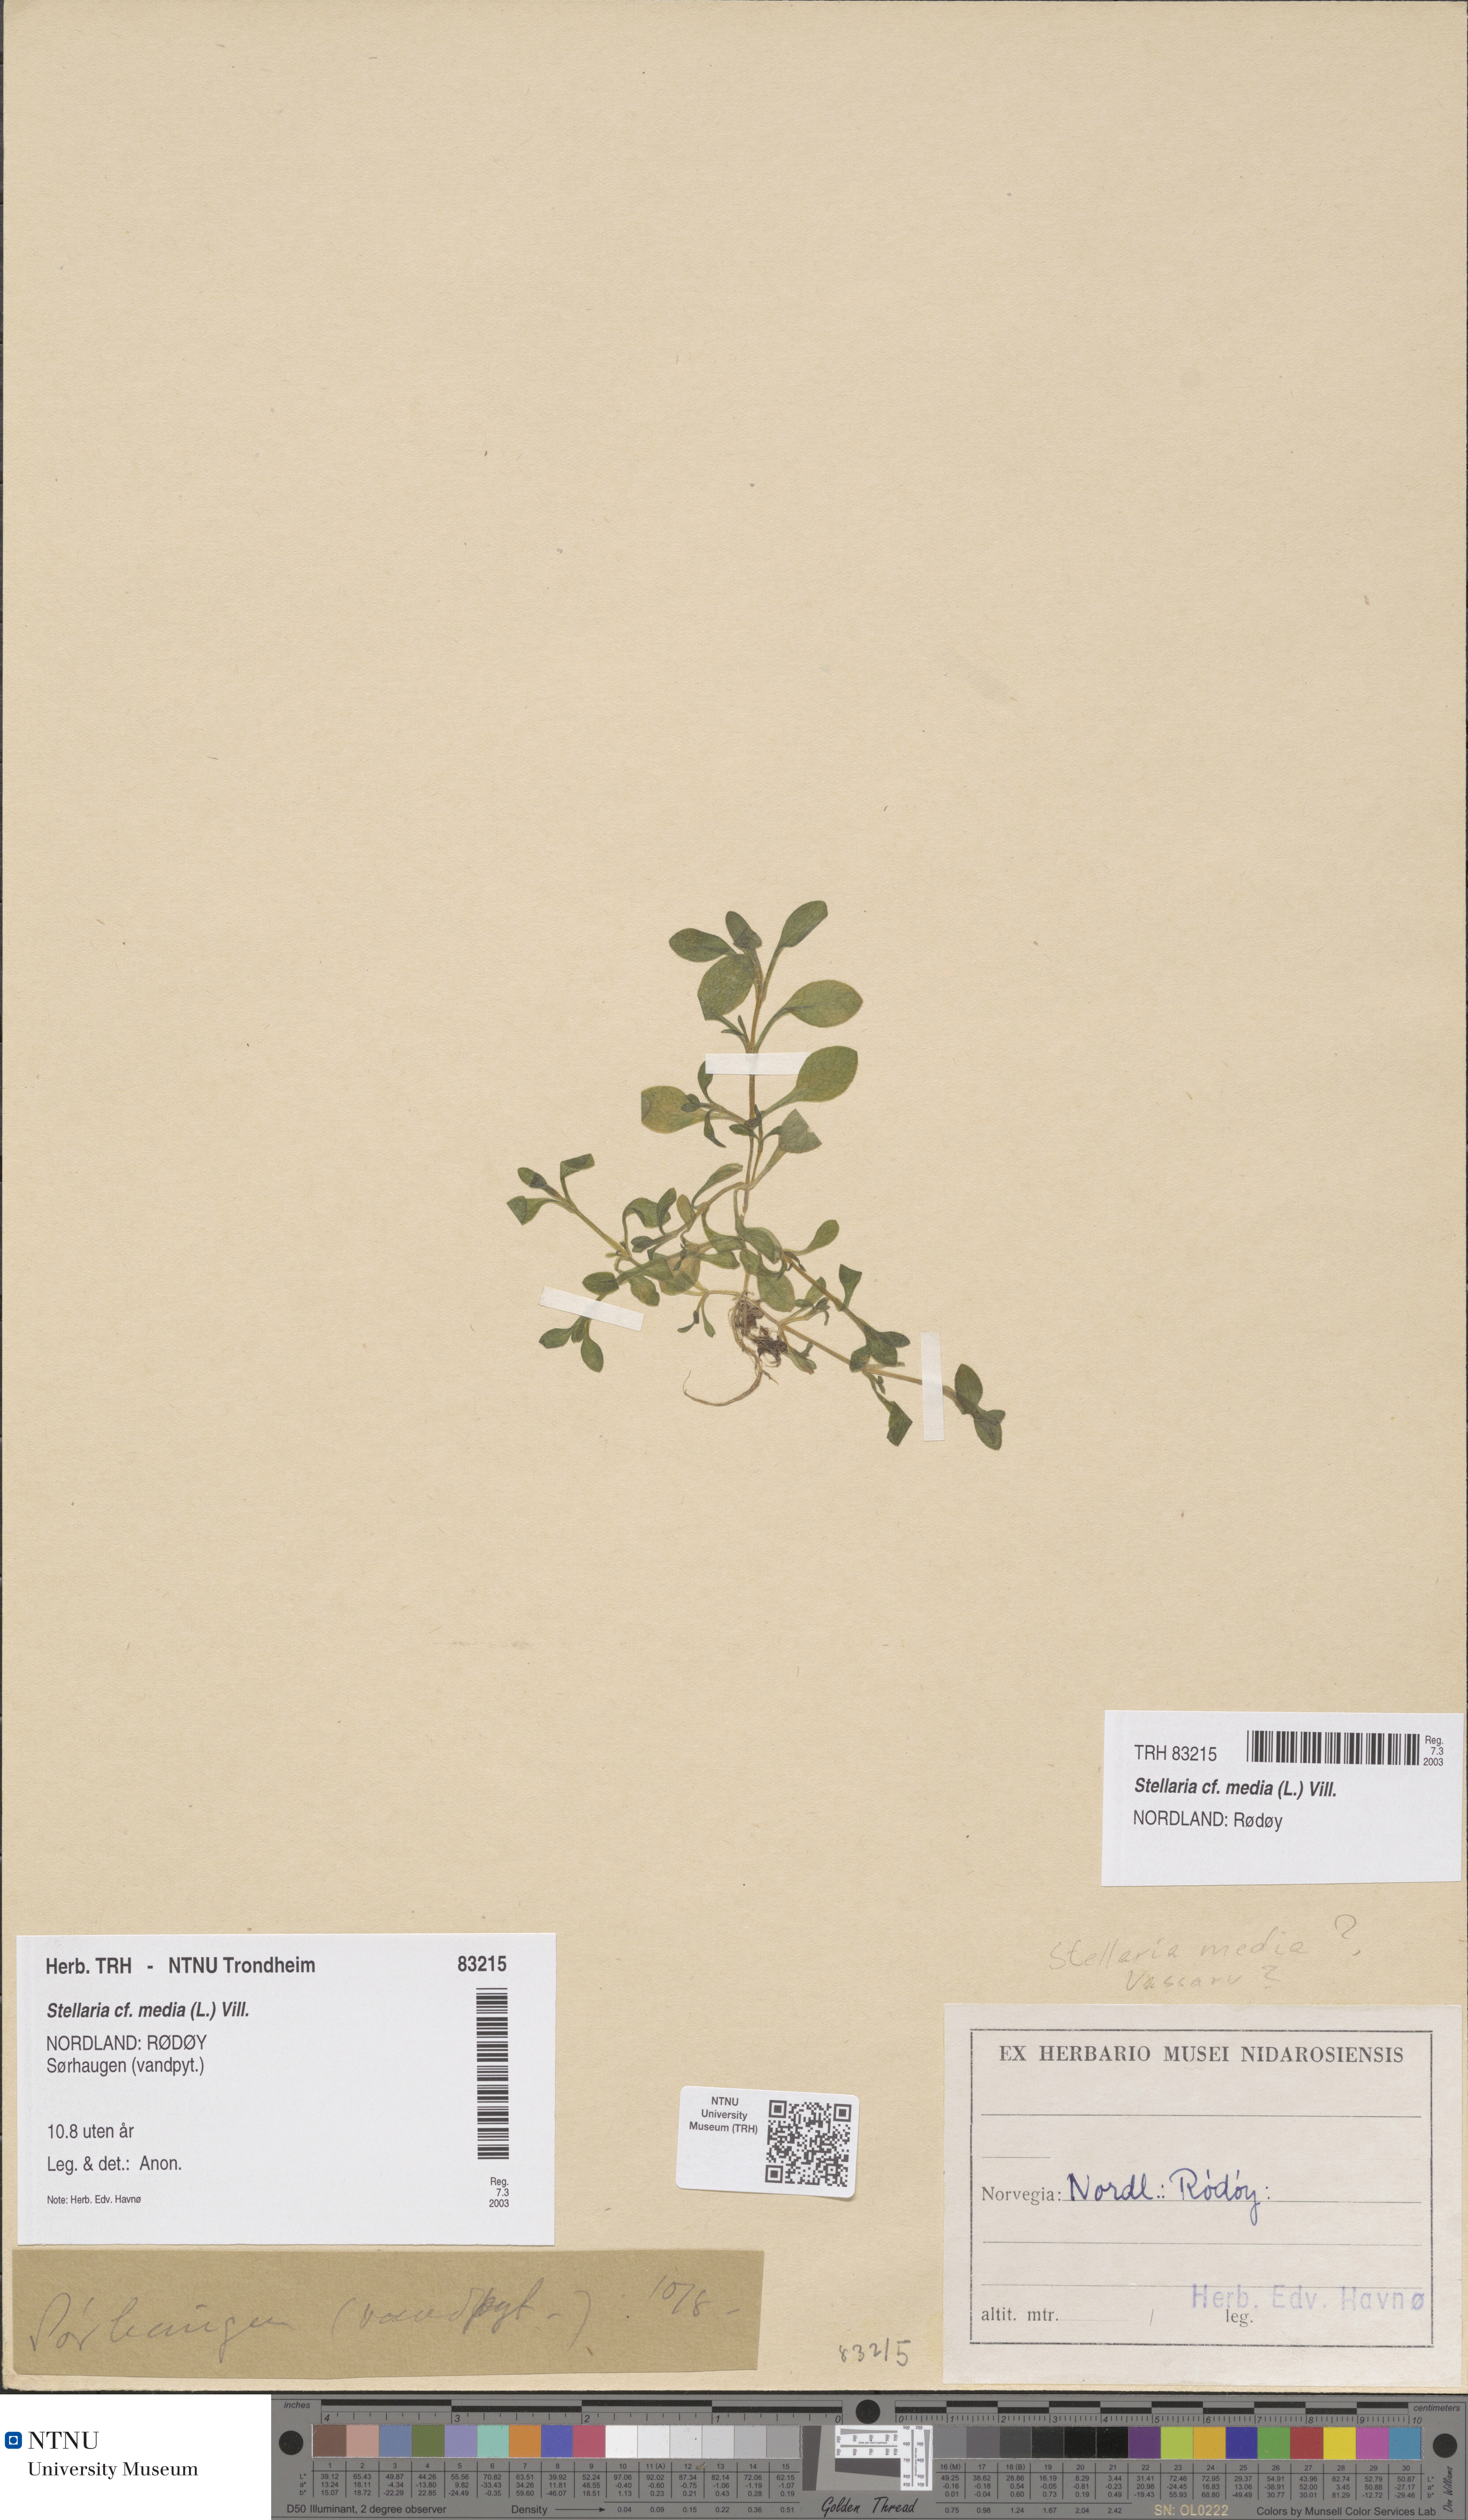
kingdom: Plantae
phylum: Tracheophyta
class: Magnoliopsida
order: Caryophyllales
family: Caryophyllaceae
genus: Stellaria
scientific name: Stellaria media
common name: Common chickweed
